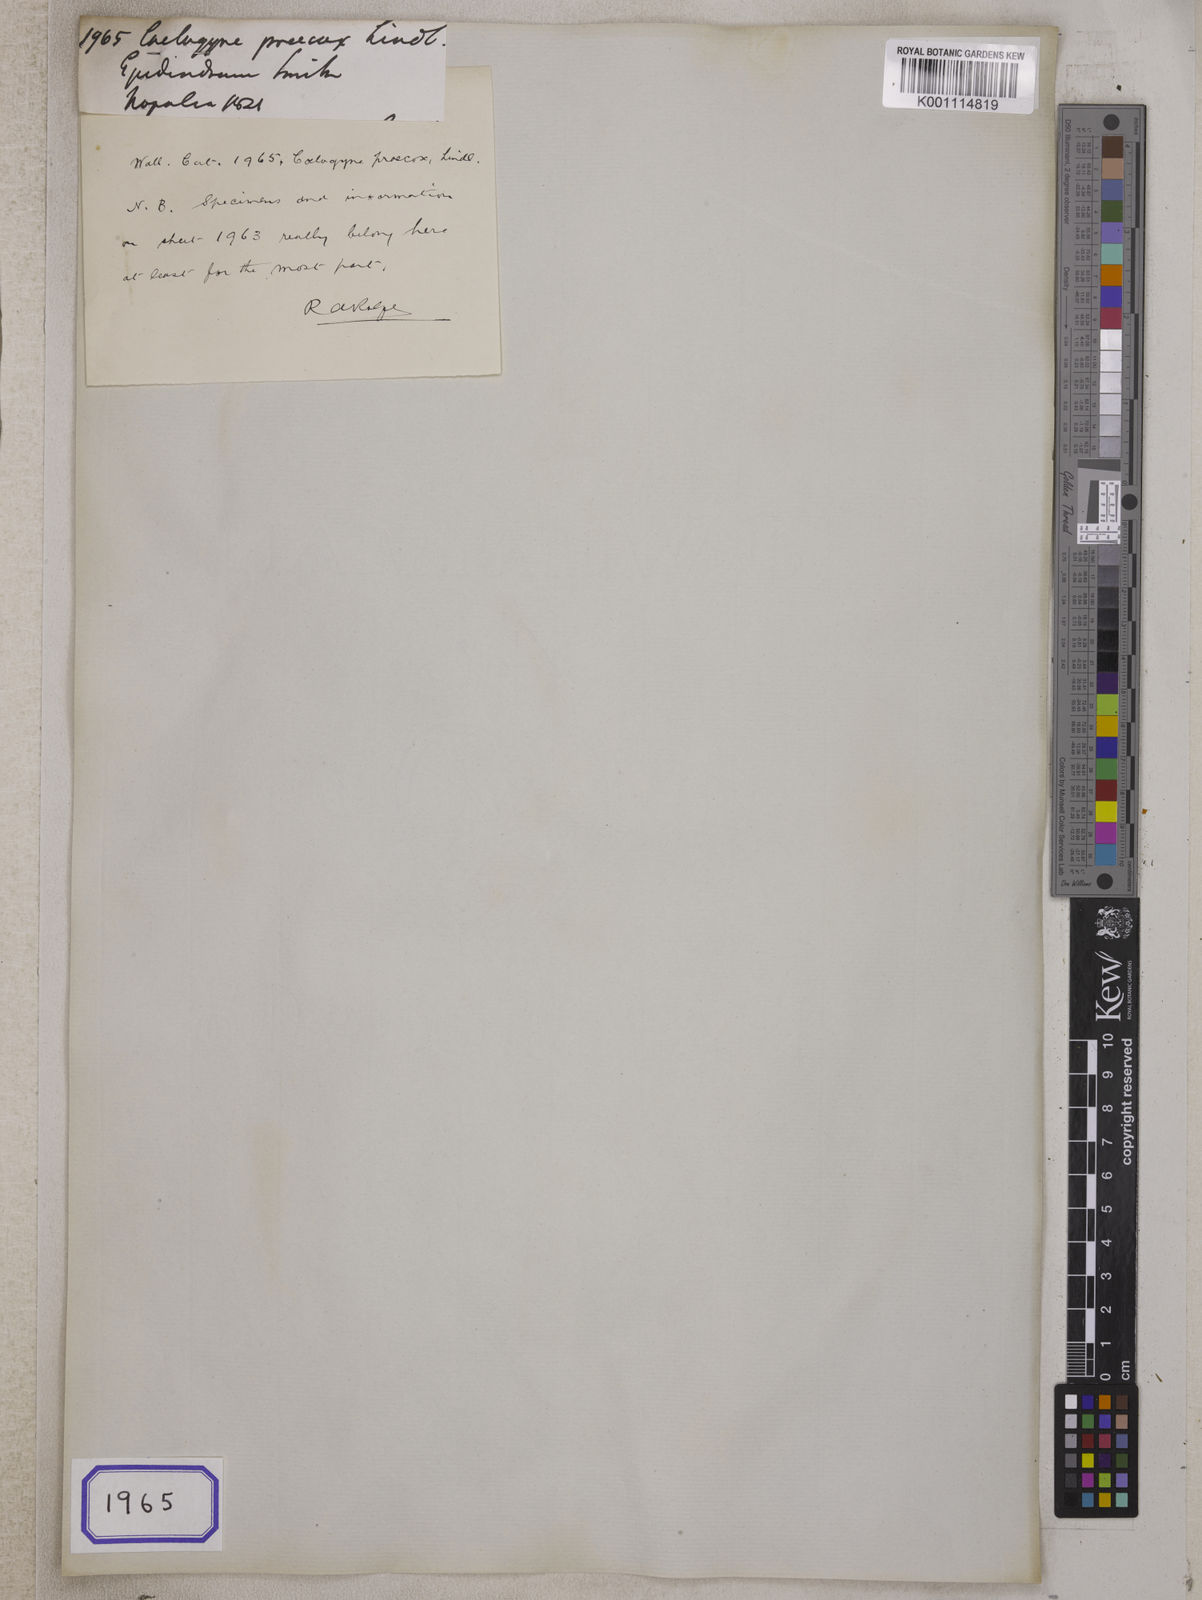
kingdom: Plantae
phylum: Tracheophyta
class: Liliopsida
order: Asparagales
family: Orchidaceae
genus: Pleione
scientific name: Pleione praecox
